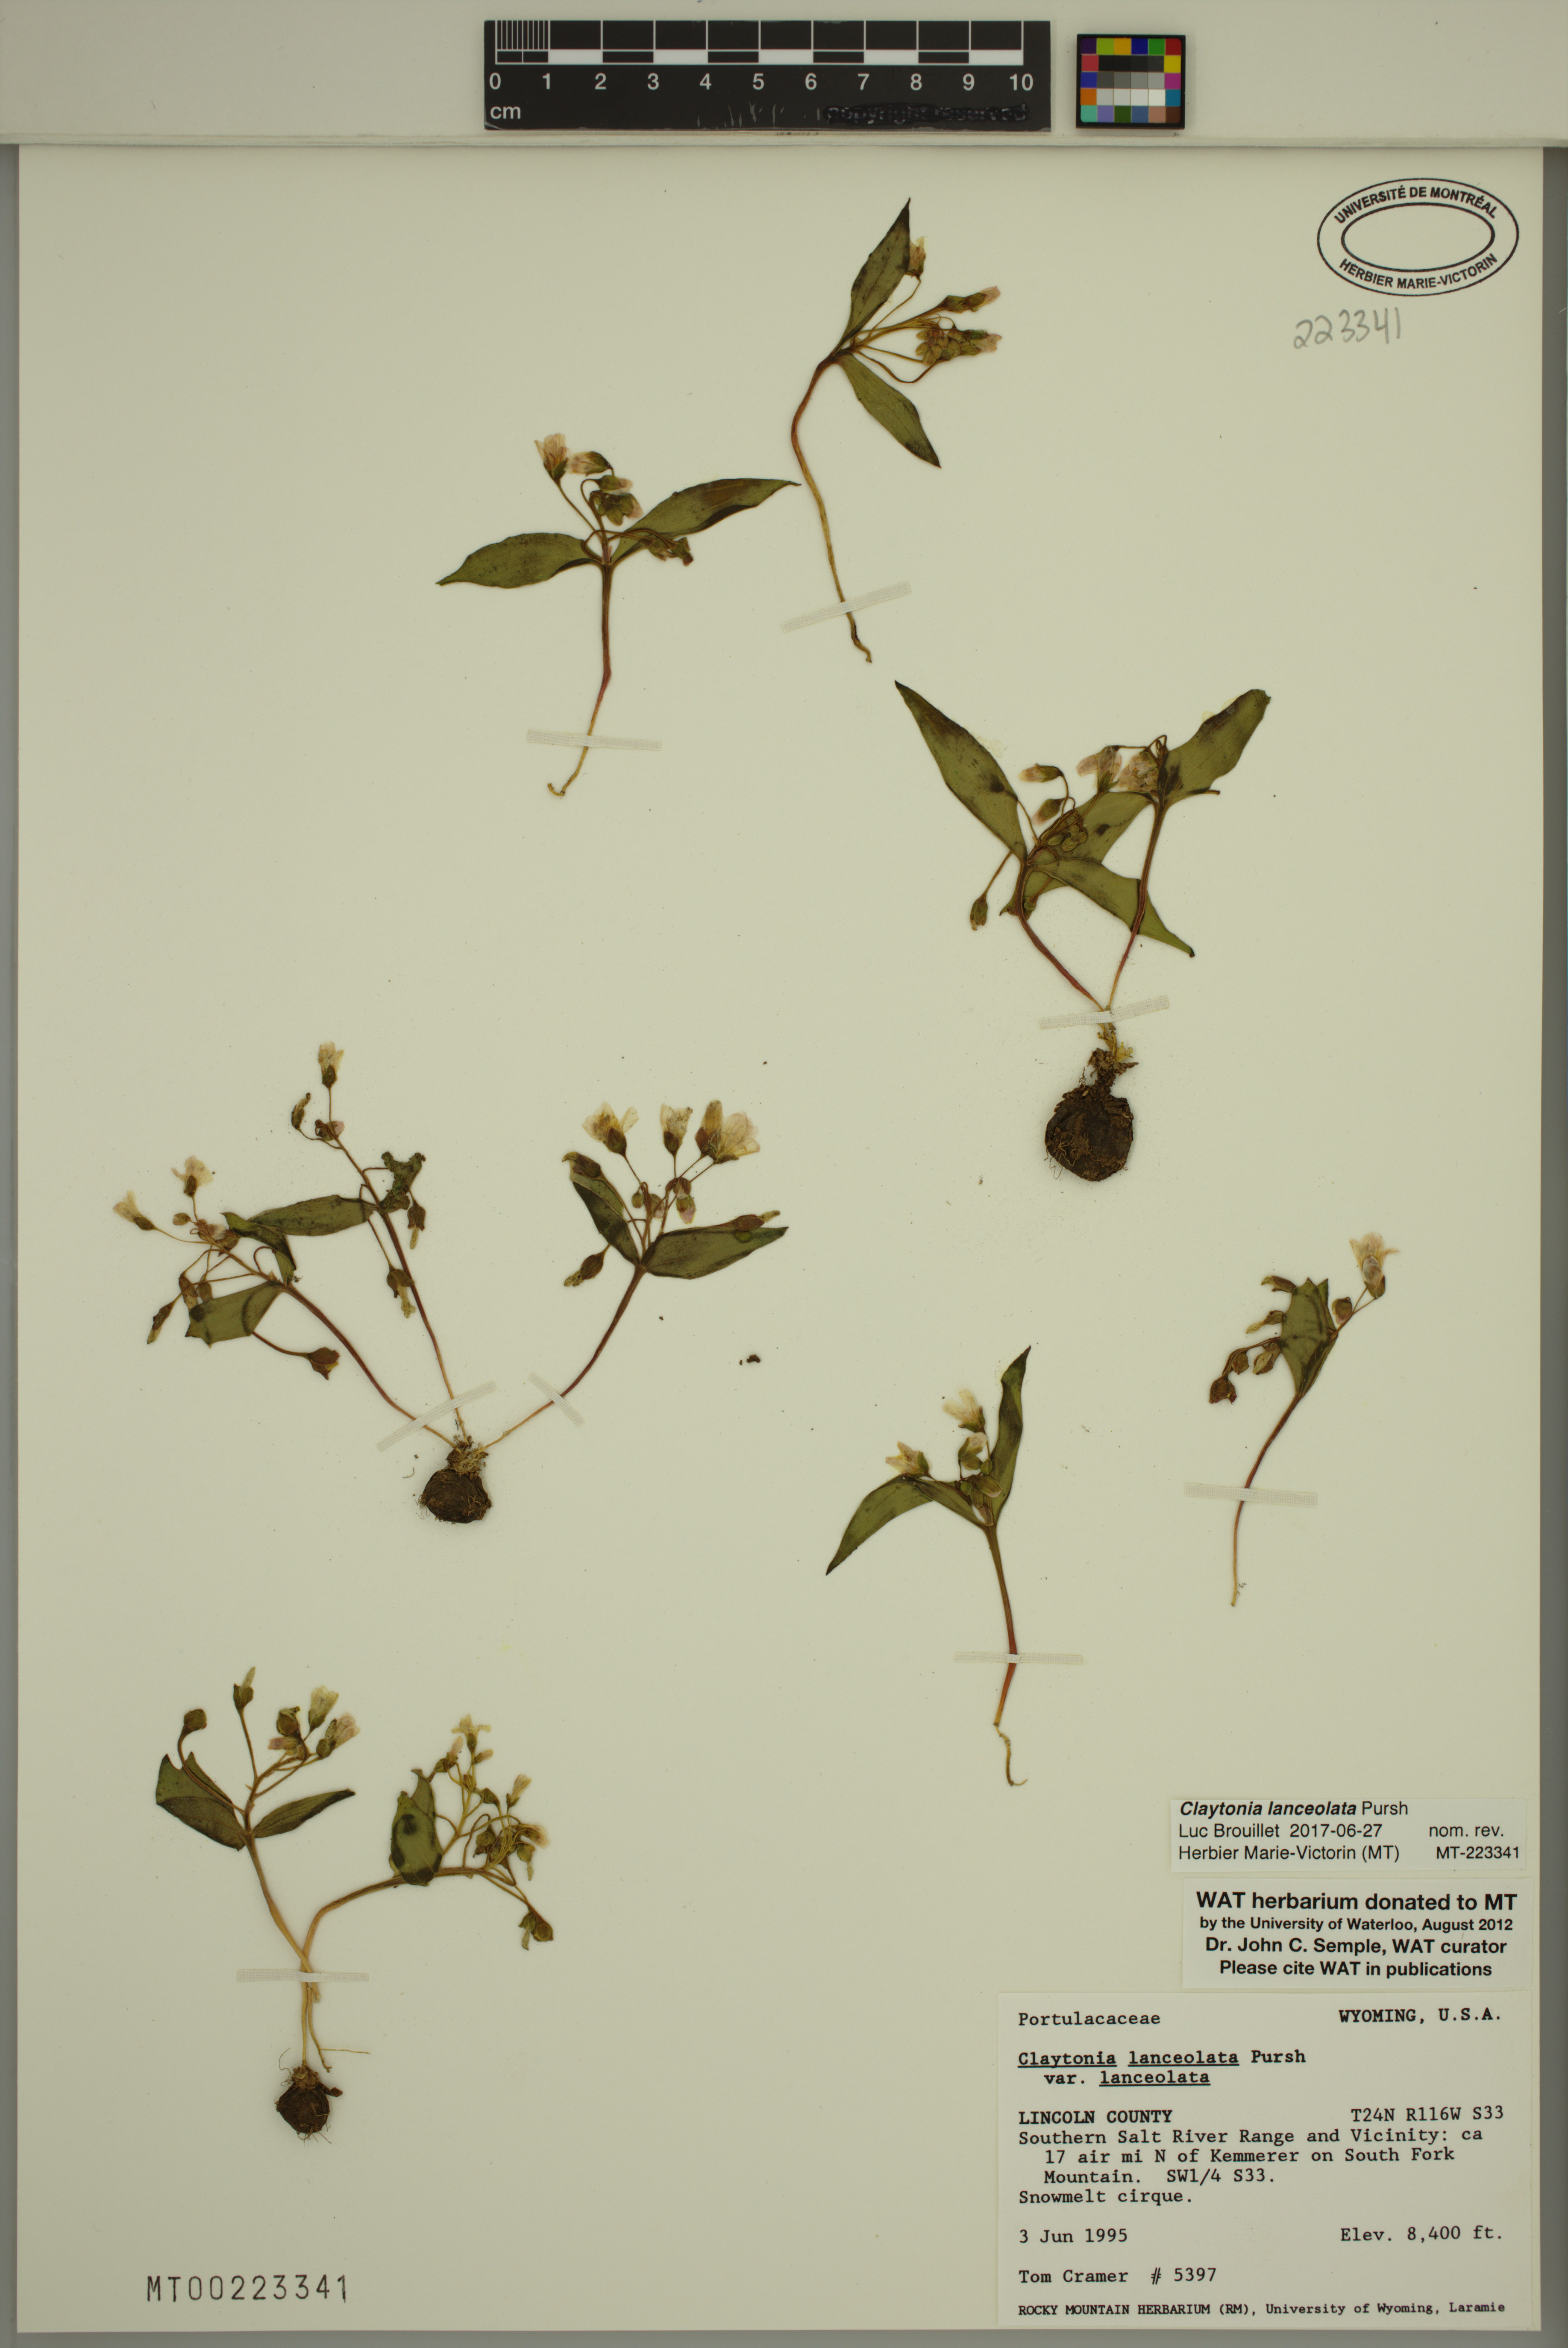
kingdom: Plantae
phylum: Tracheophyta
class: Magnoliopsida
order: Caryophyllales
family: Montiaceae
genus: Claytonia
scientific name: Claytonia lanceolata
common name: Western spring-beauty
